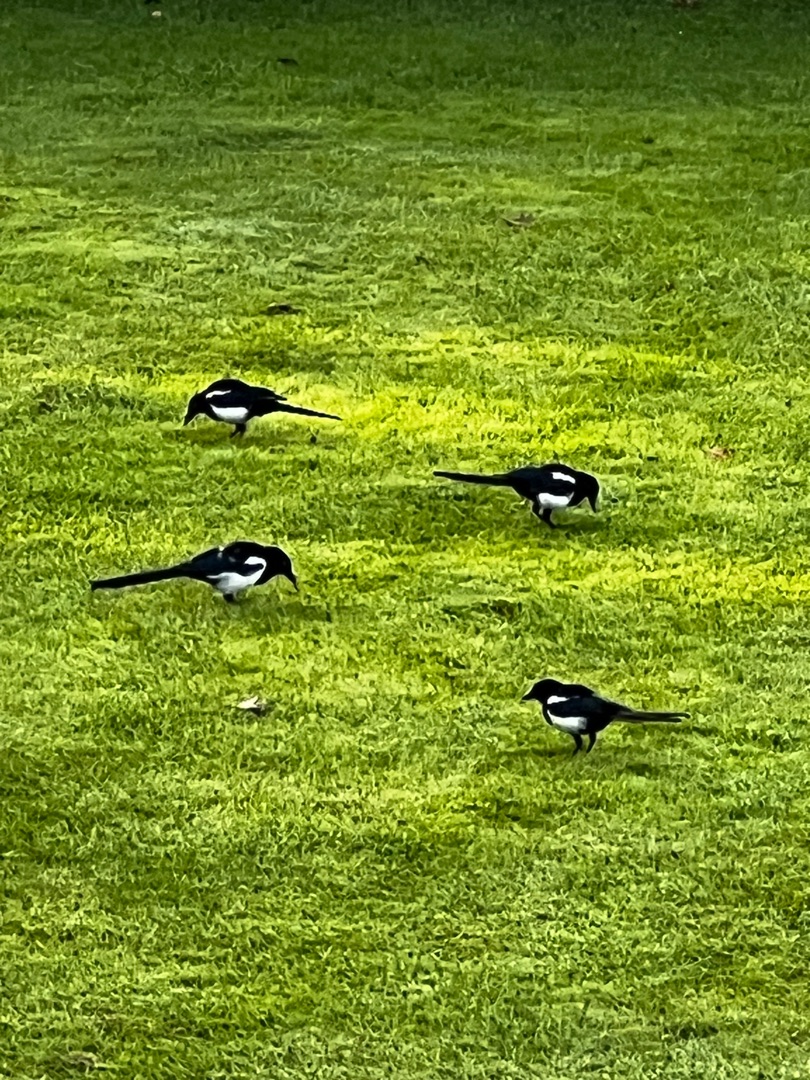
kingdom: Animalia
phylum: Chordata
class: Aves
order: Passeriformes
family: Corvidae
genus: Pica
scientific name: Pica pica
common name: Husskade
